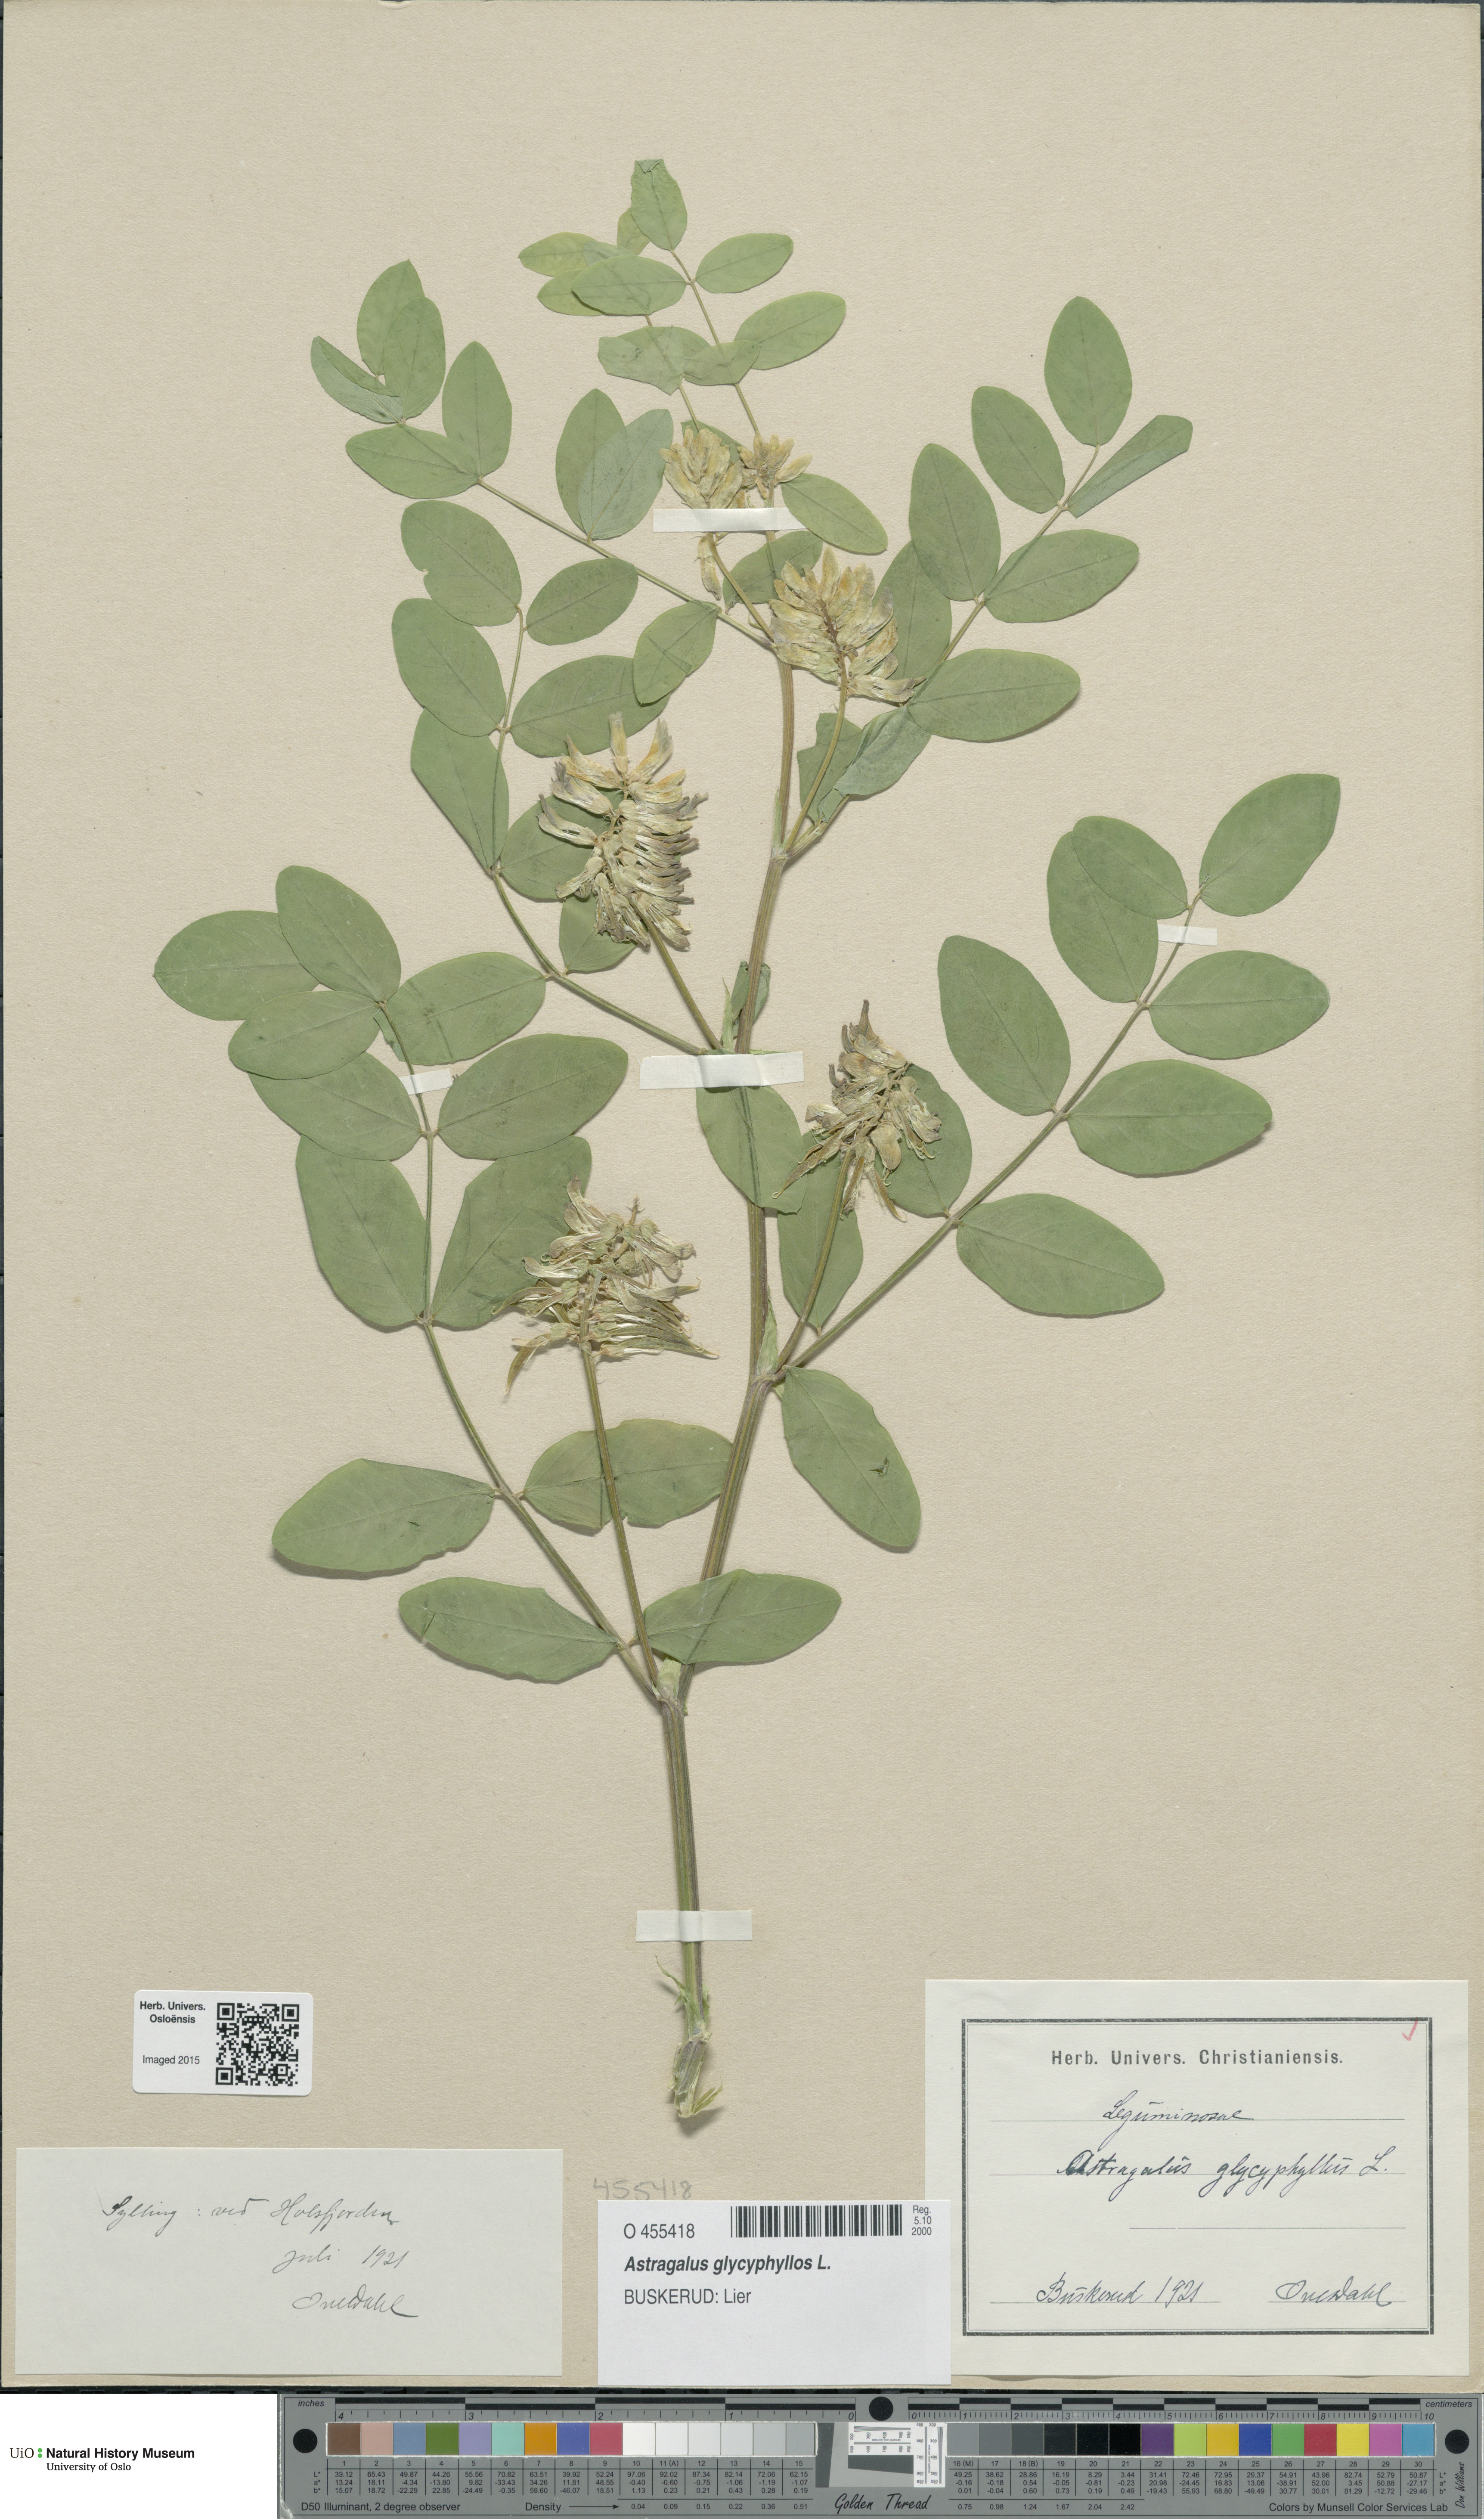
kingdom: Plantae
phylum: Tracheophyta
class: Magnoliopsida
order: Fabales
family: Fabaceae
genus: Astragalus
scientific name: Astragalus glycyphyllos
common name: Wild liquorice
